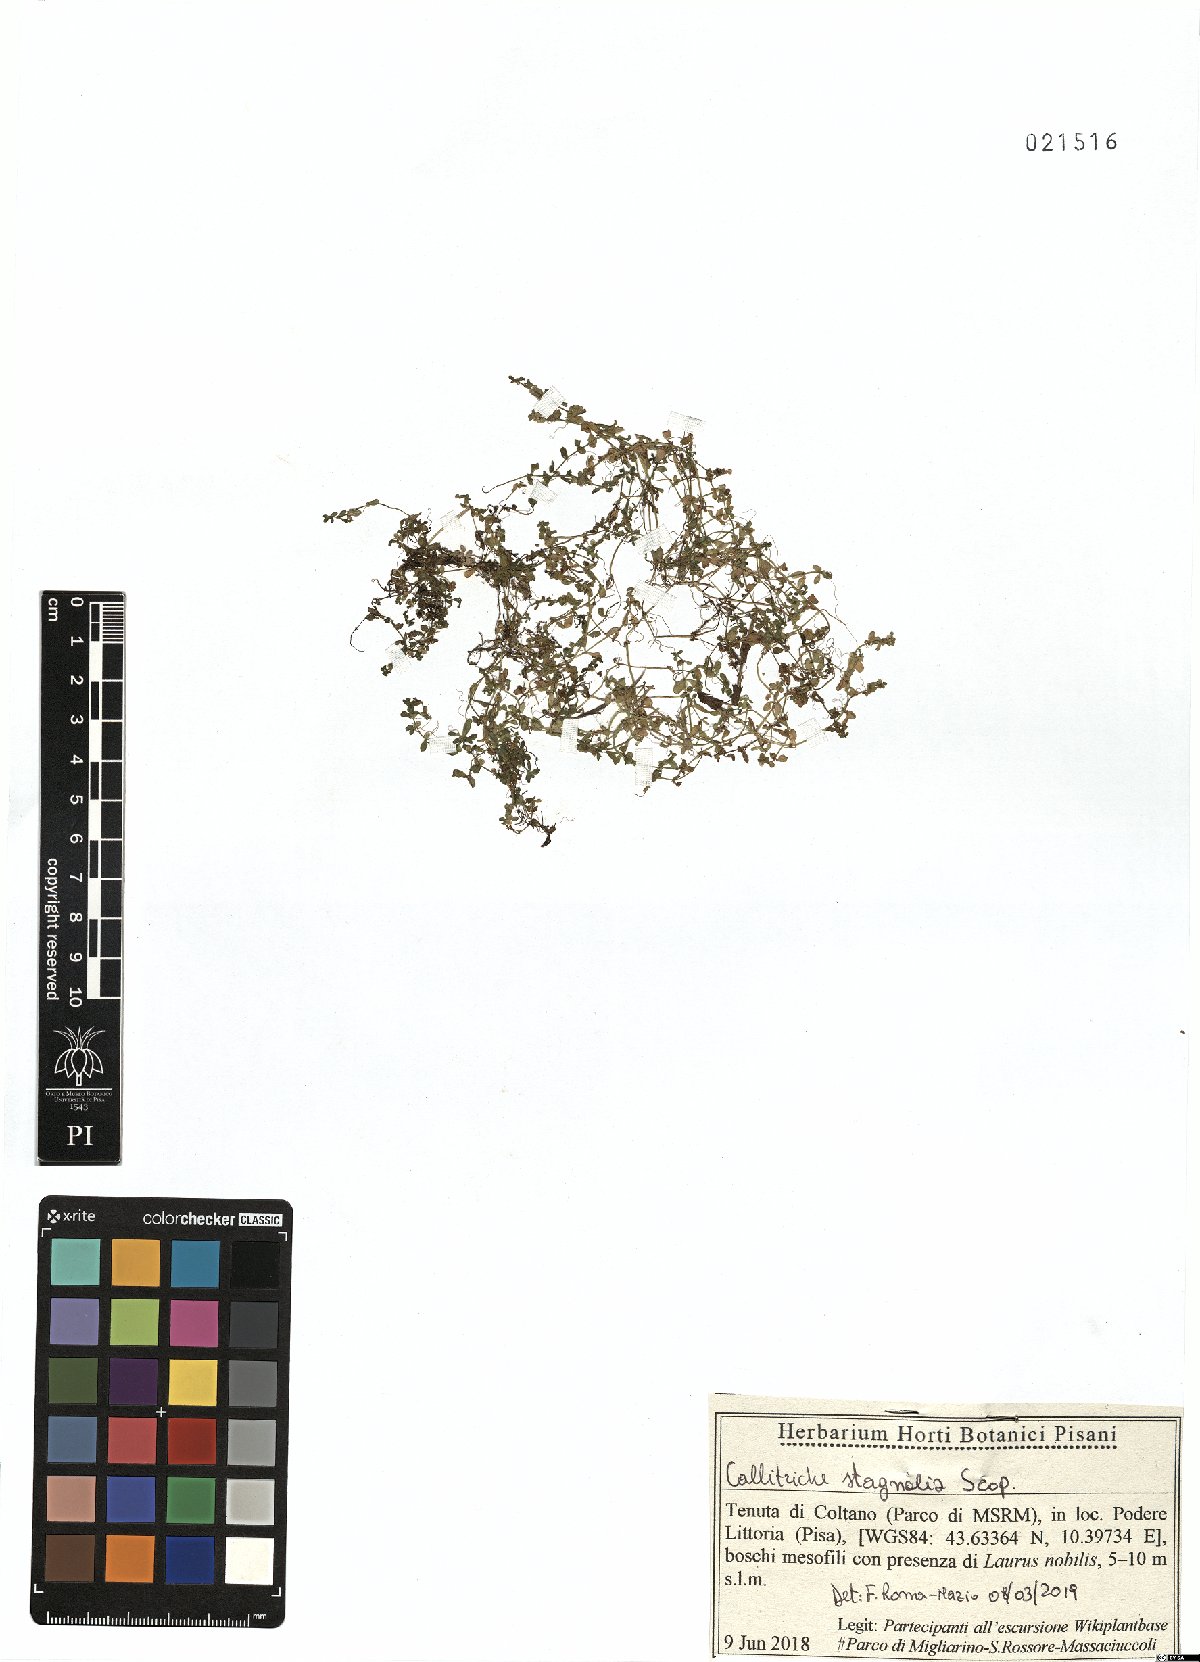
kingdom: Plantae
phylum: Tracheophyta
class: Magnoliopsida
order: Lamiales
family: Plantaginaceae
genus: Callitriche
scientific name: Callitriche stagnalis
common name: Common water-starwort
